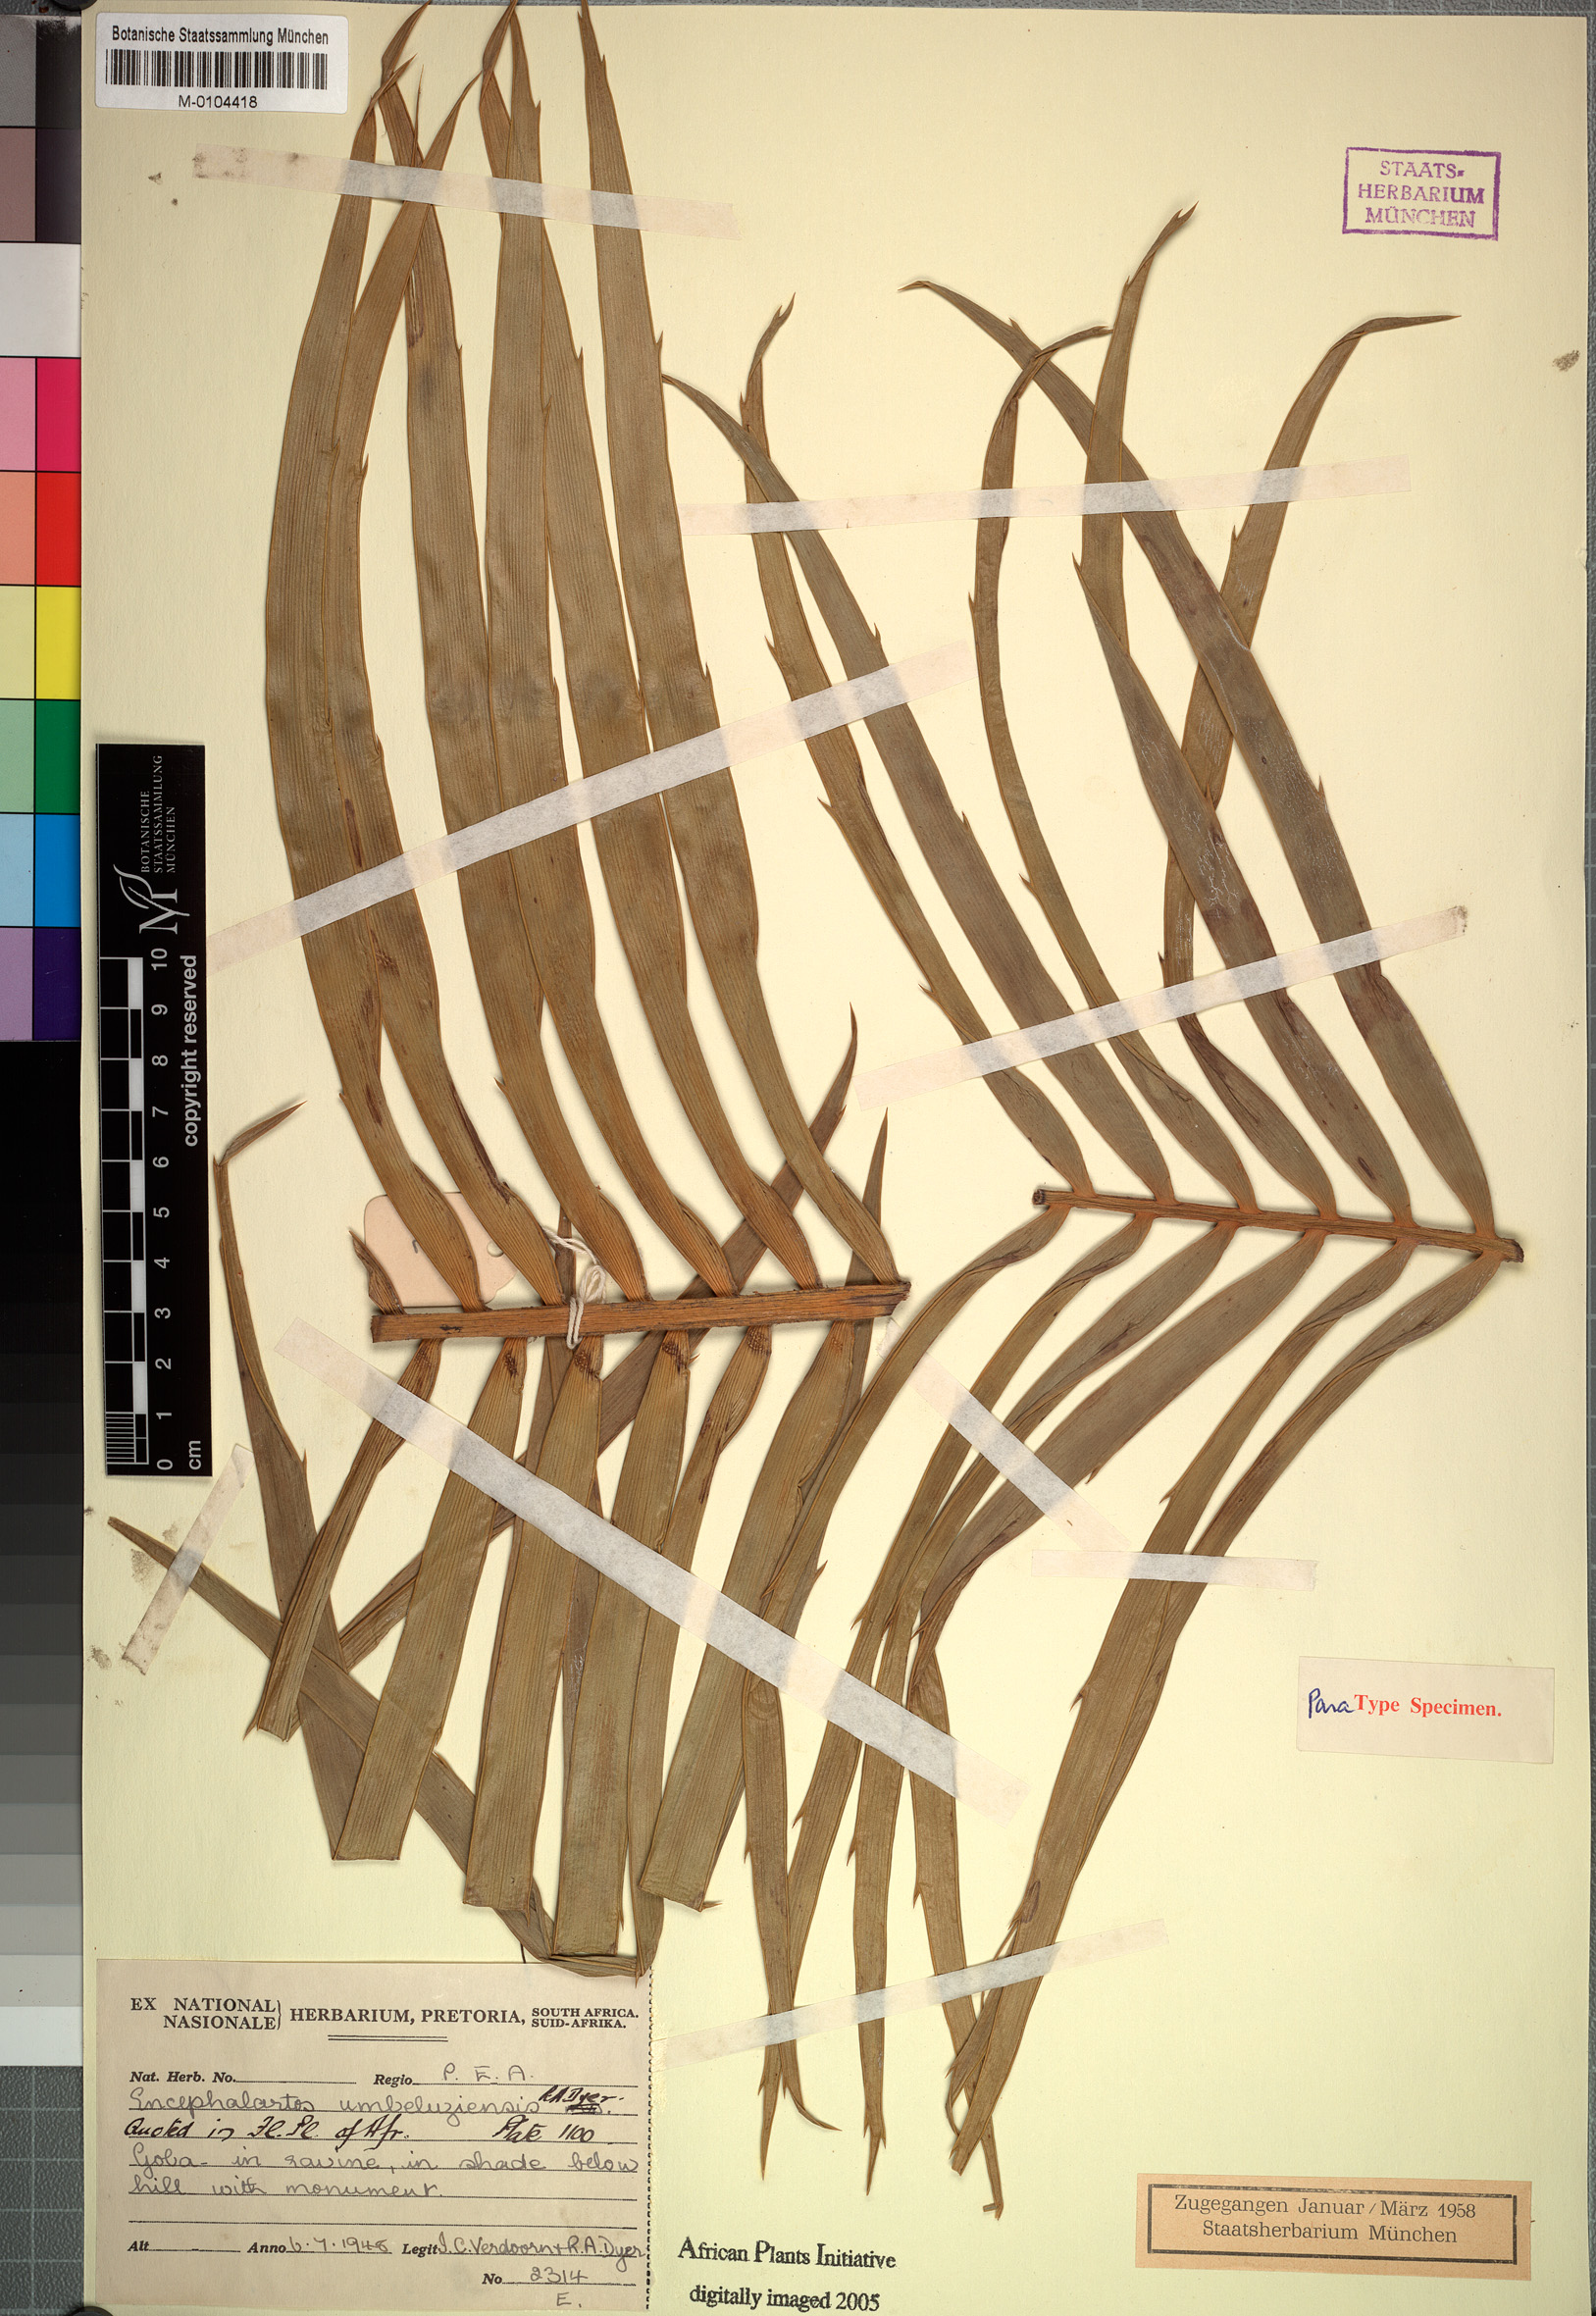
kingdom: Plantae
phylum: Tracheophyta
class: Cycadopsida
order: Cycadales
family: Zamiaceae
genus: Encephalartos
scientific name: Encephalartos umbeluziensis
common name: Umbeluzi cycad
